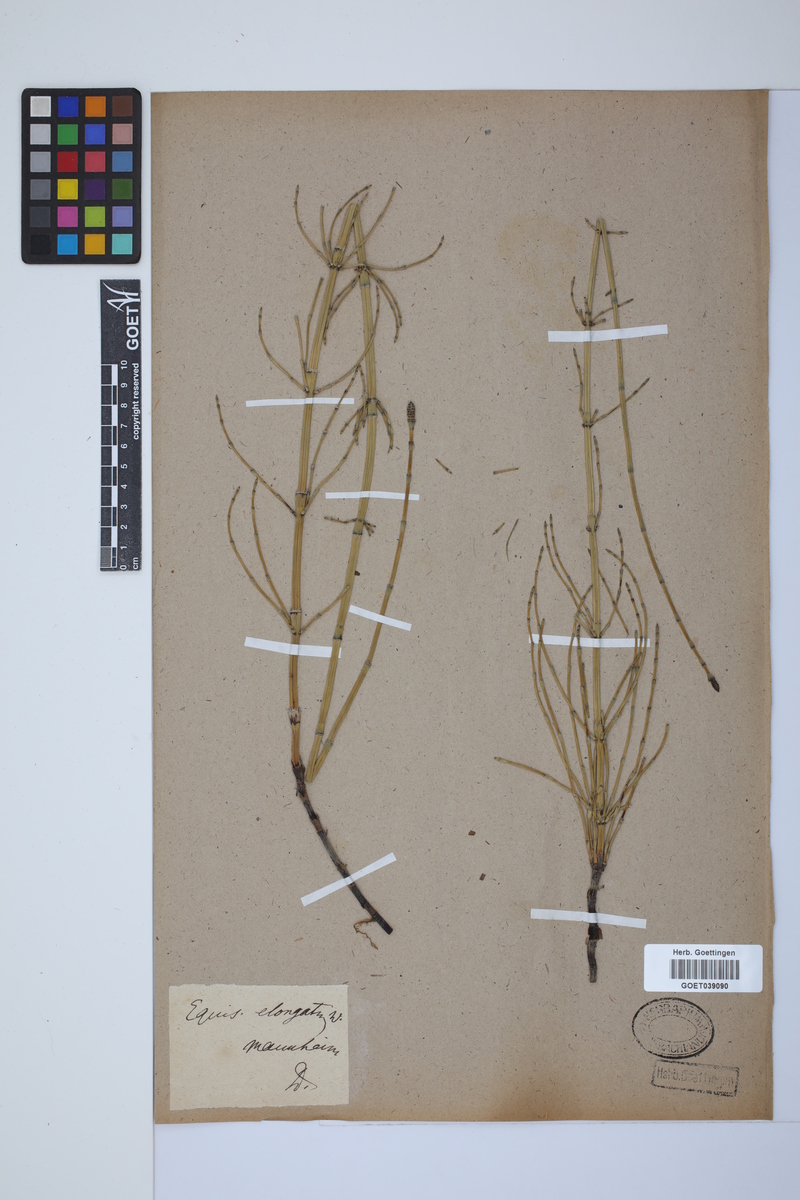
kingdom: Plantae
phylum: Tracheophyta
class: Polypodiopsida
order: Equisetales
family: Equisetaceae
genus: Equisetum
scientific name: Equisetum giganteum
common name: Giant horsetail
